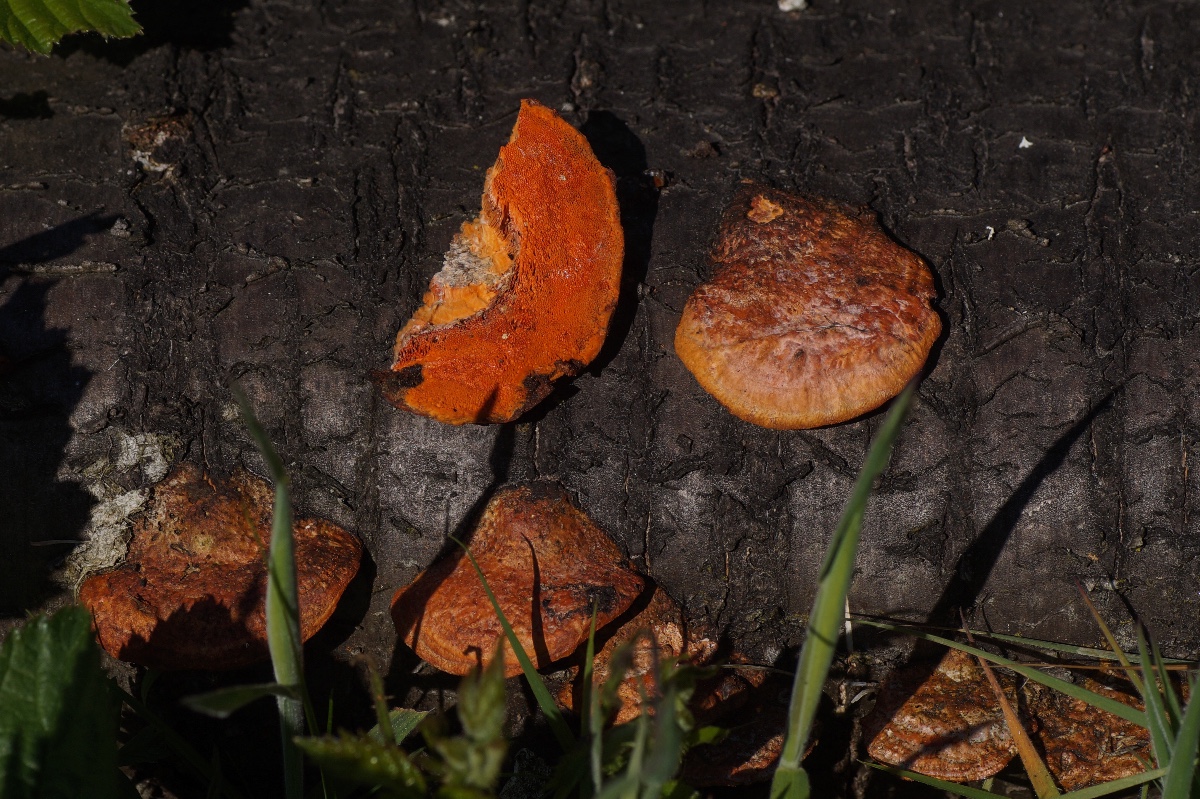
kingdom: Fungi
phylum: Basidiomycota
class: Agaricomycetes
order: Polyporales
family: Polyporaceae
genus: Trametes
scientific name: Trametes cinnabarina
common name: cinnoberporesvamp
